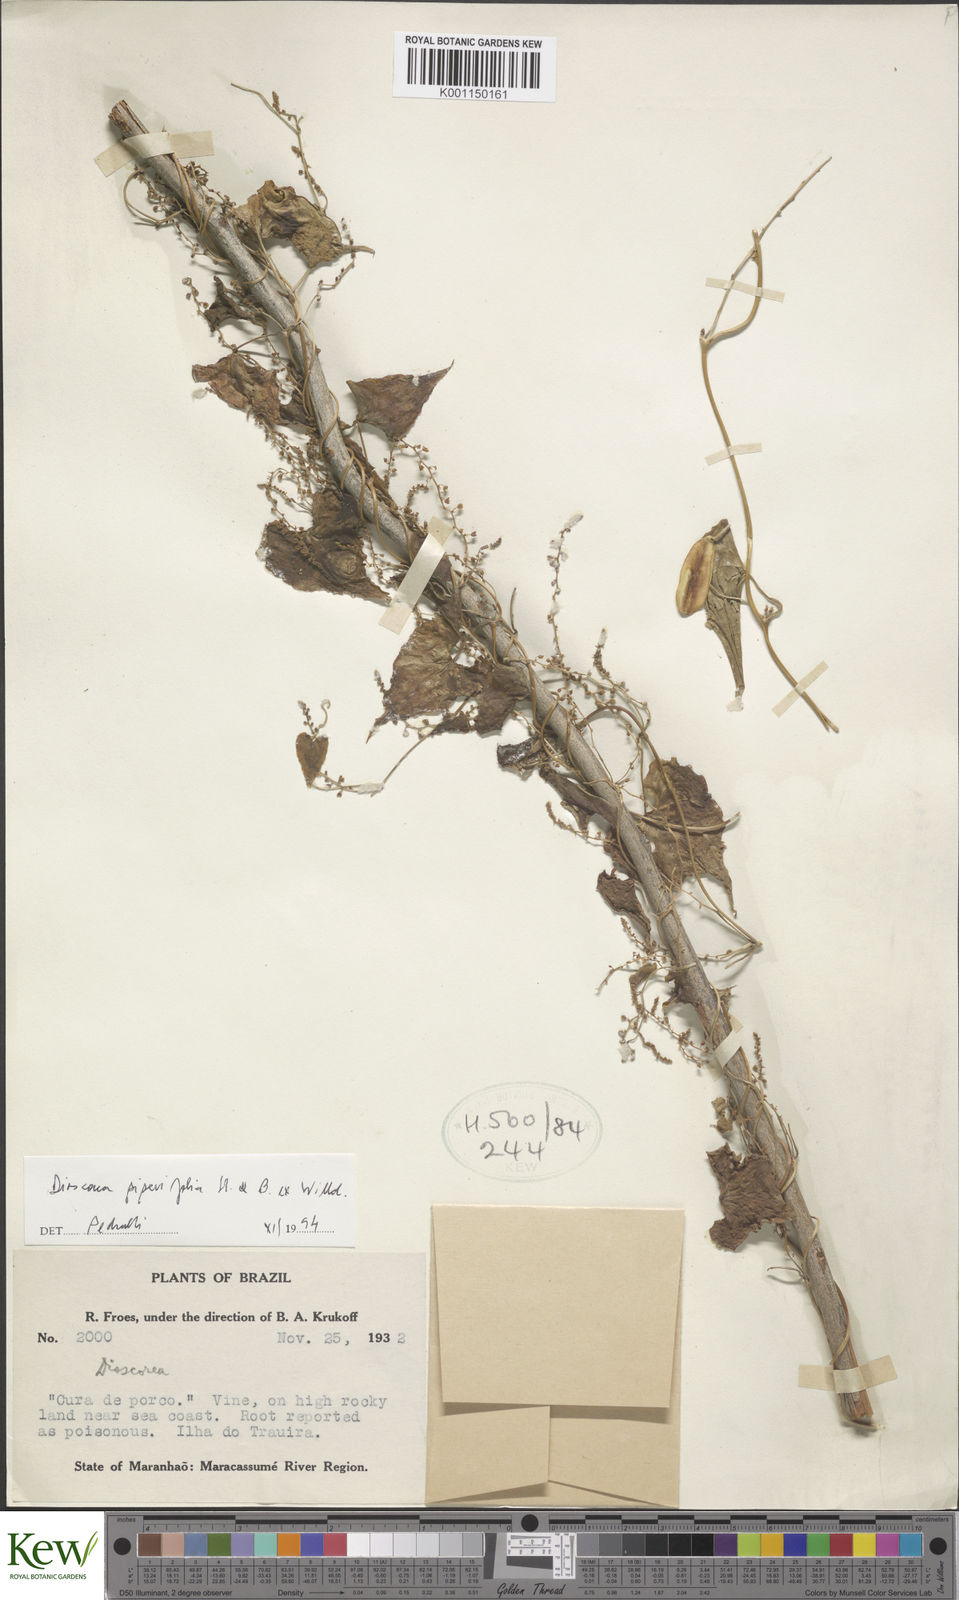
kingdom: Plantae
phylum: Tracheophyta
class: Liliopsida
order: Dioscoreales
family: Dioscoreaceae
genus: Dioscorea
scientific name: Dioscorea piperifolia
